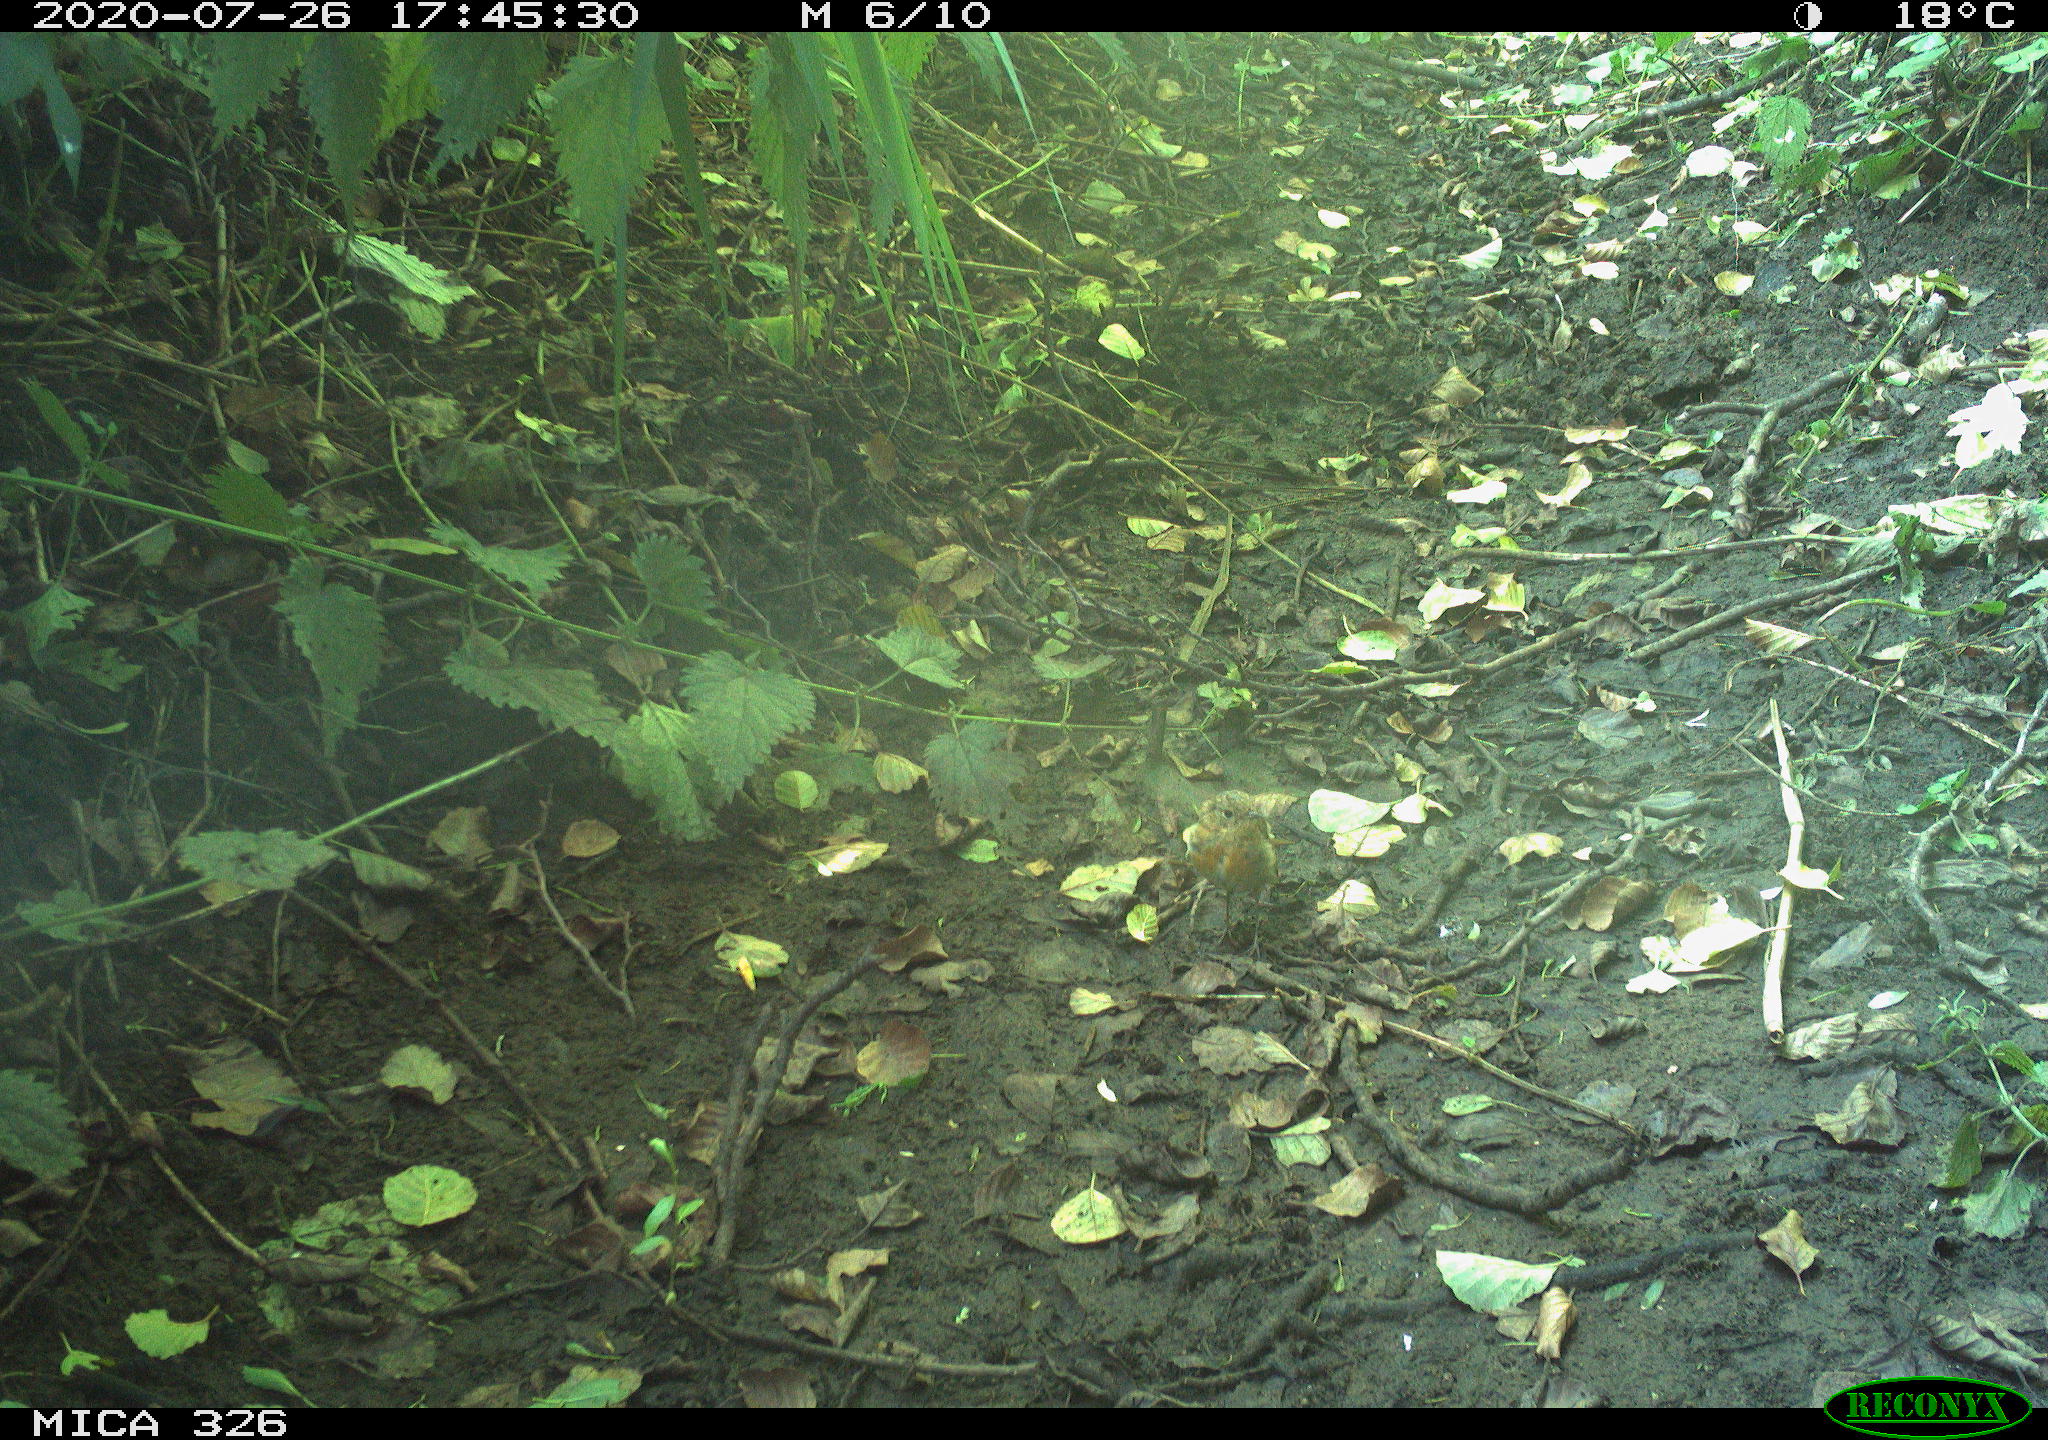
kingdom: Animalia
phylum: Chordata
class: Aves
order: Passeriformes
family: Muscicapidae
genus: Erithacus
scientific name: Erithacus rubecula
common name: European robin
